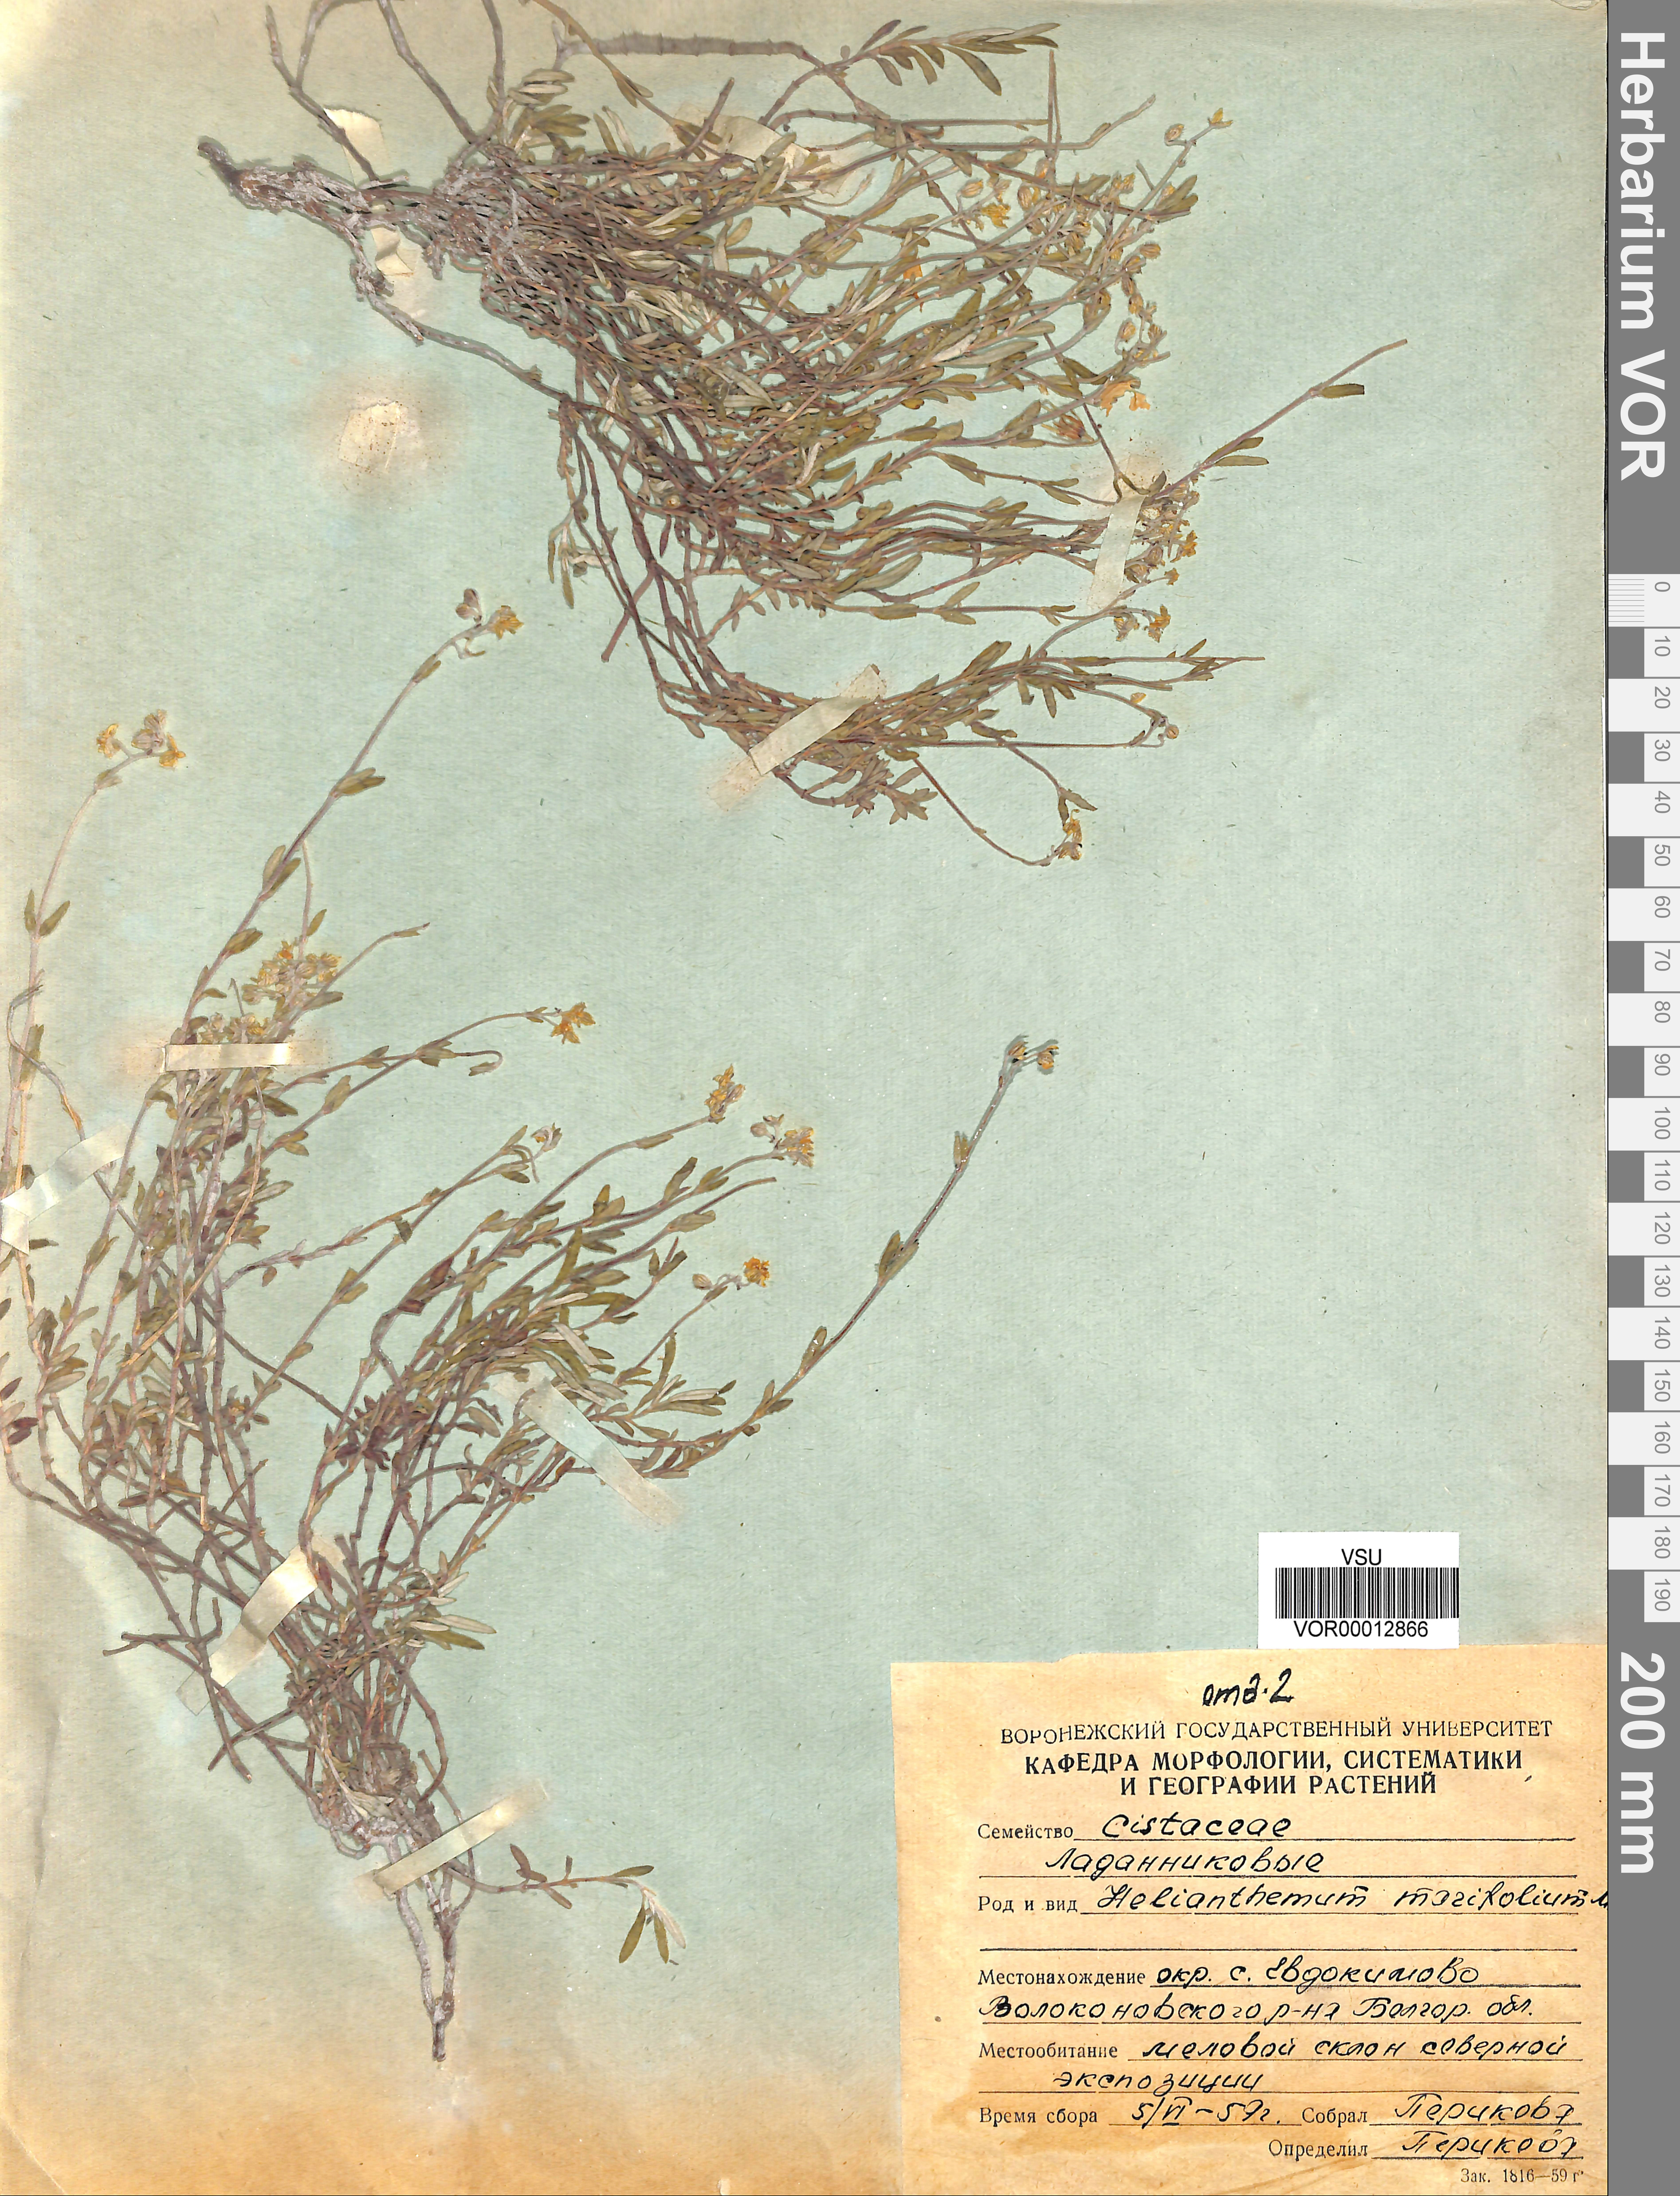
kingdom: Plantae
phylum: Tracheophyta
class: Magnoliopsida
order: Malvales
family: Cistaceae
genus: Helianthemum
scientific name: Helianthemum marifolium
